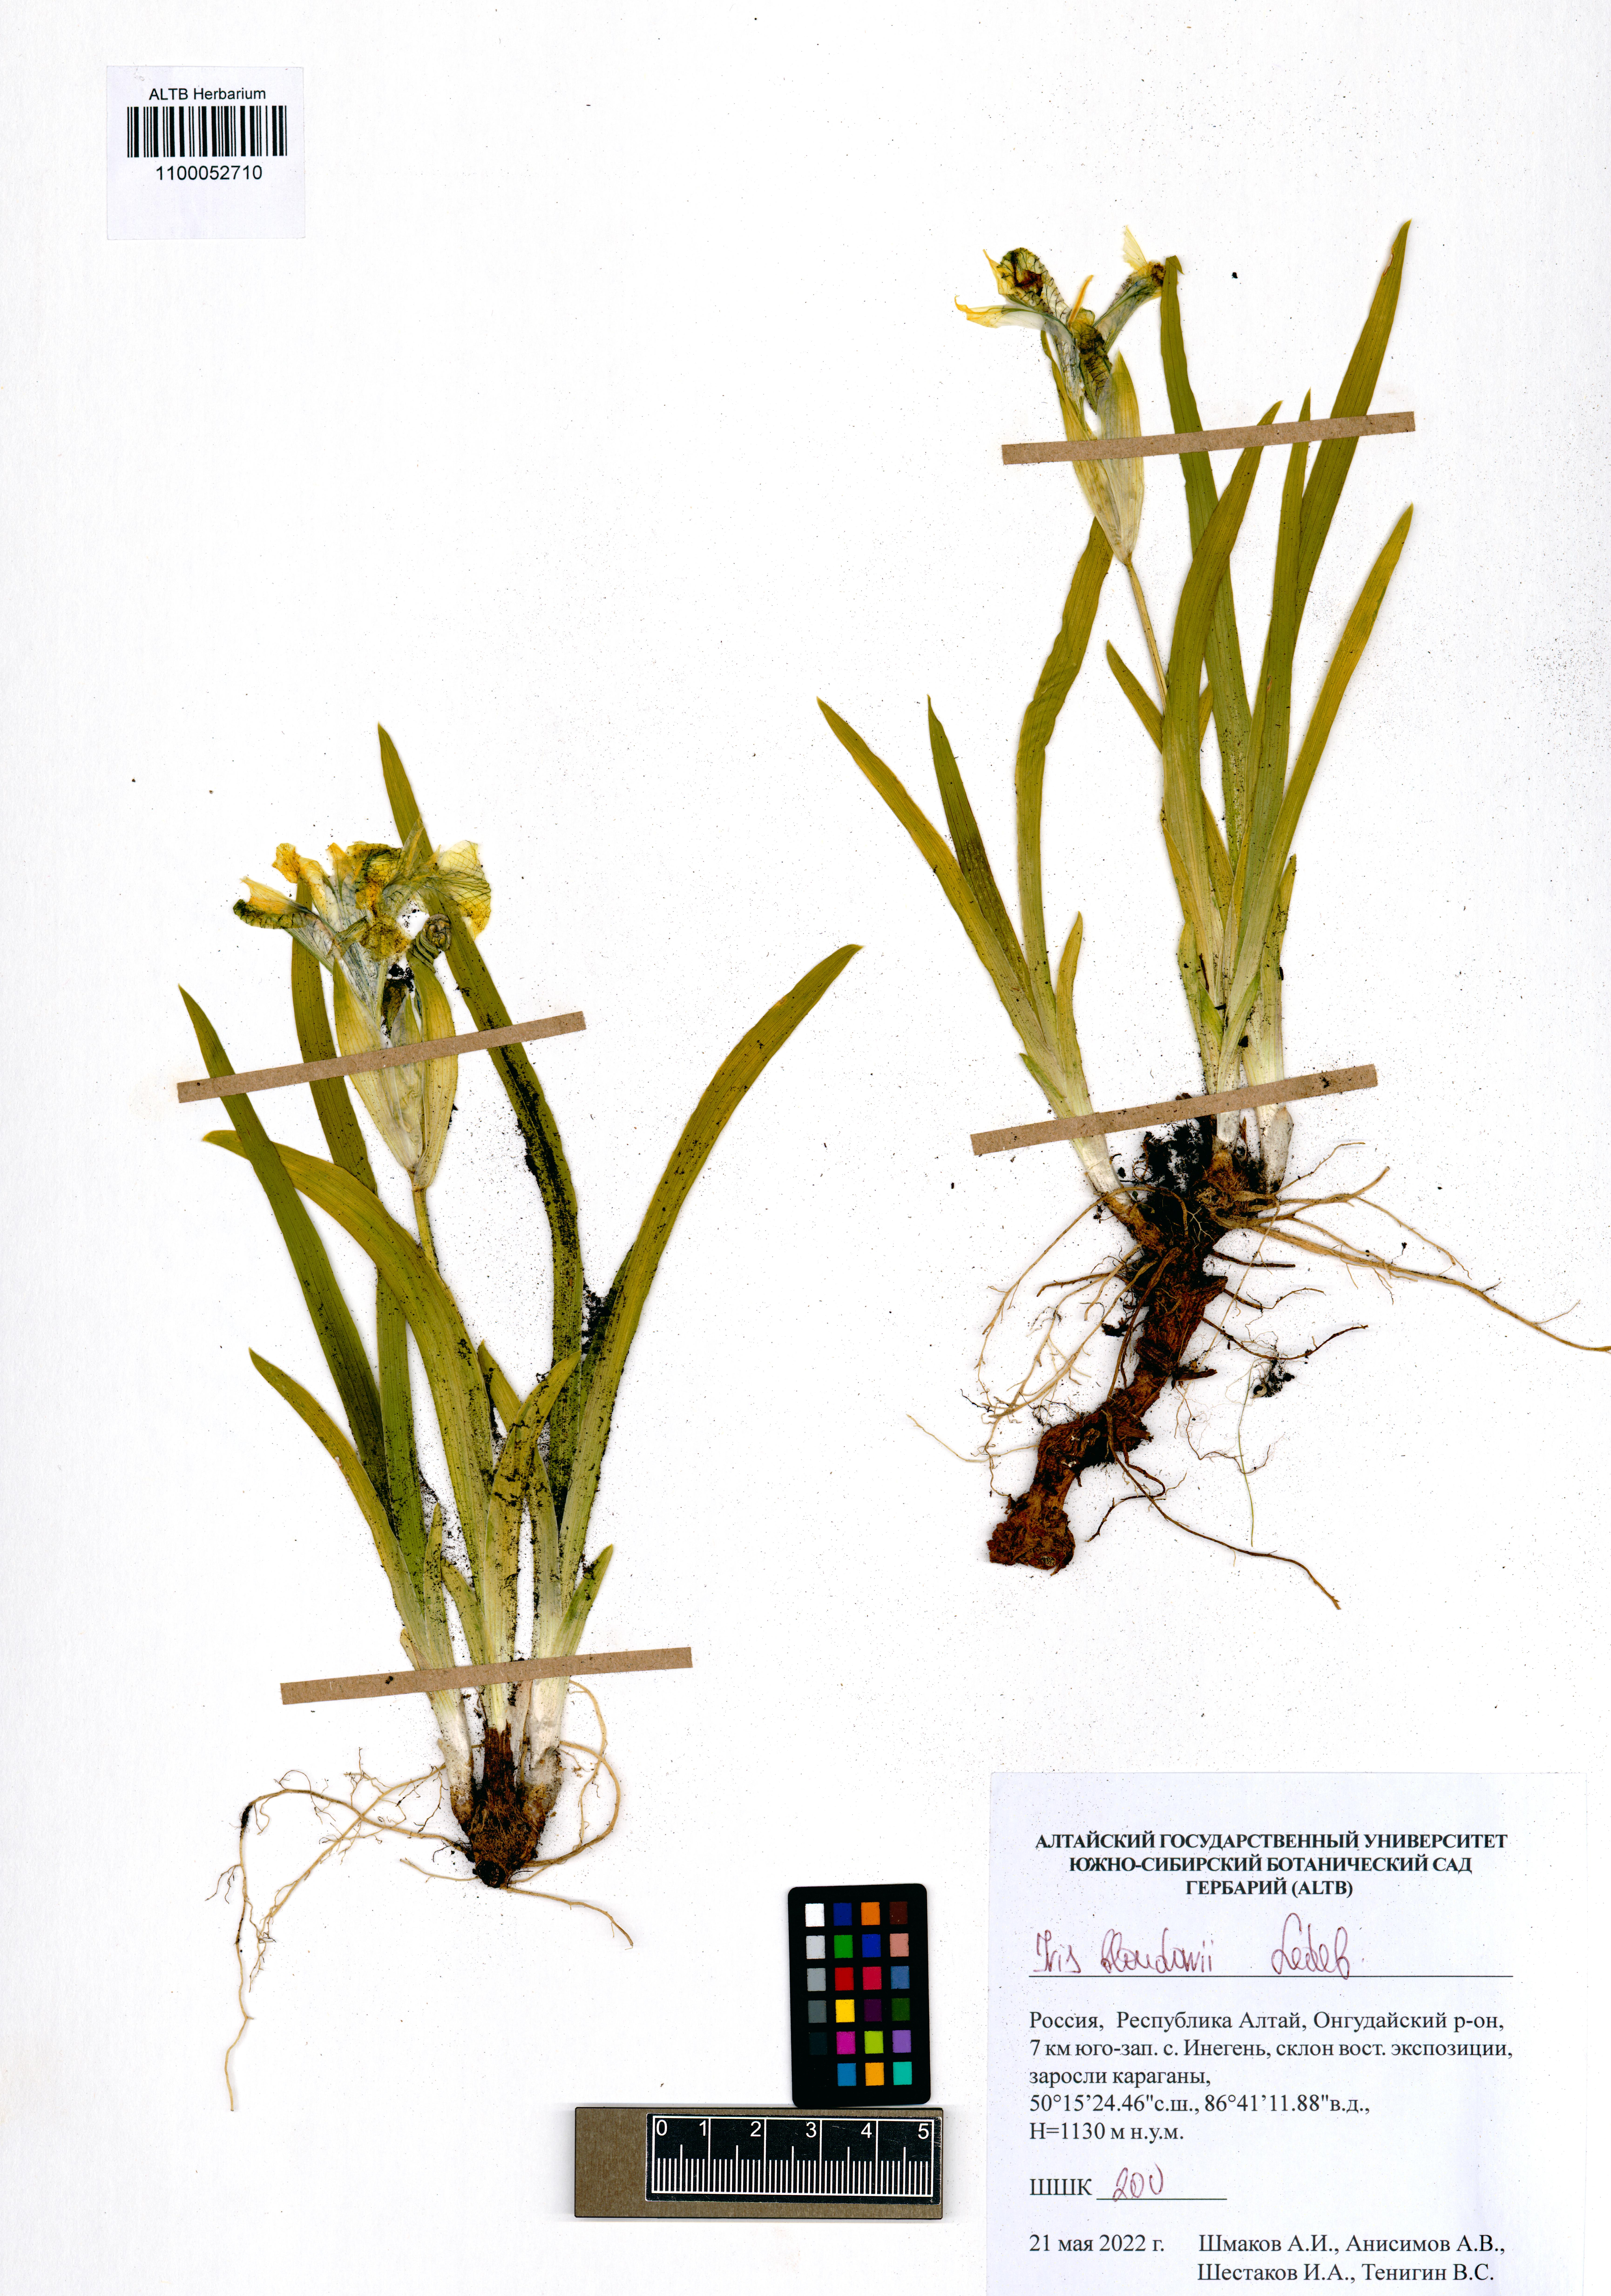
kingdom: Plantae
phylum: Tracheophyta
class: Liliopsida
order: Asparagales
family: Iridaceae
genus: Iris
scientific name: Iris bloudowii
